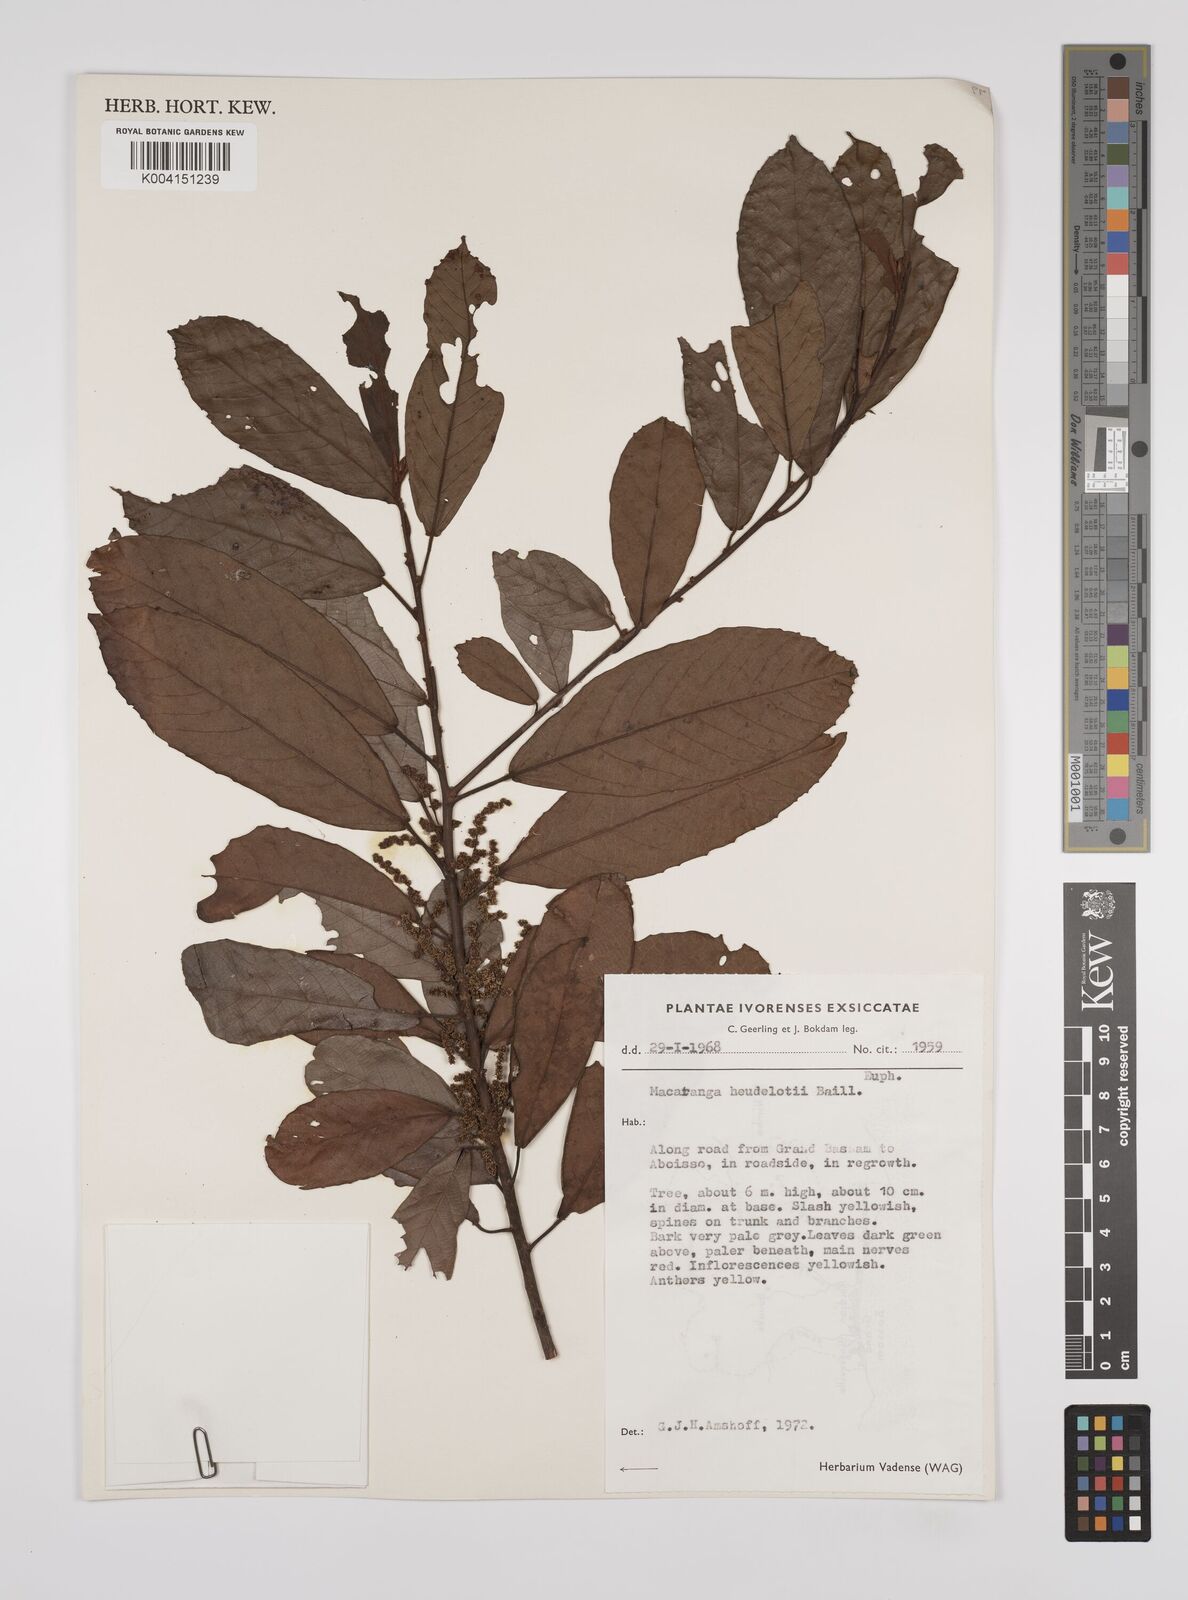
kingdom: Plantae
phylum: Tracheophyta
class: Magnoliopsida
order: Malpighiales
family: Euphorbiaceae
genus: Macaranga
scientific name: Macaranga heudelotii
